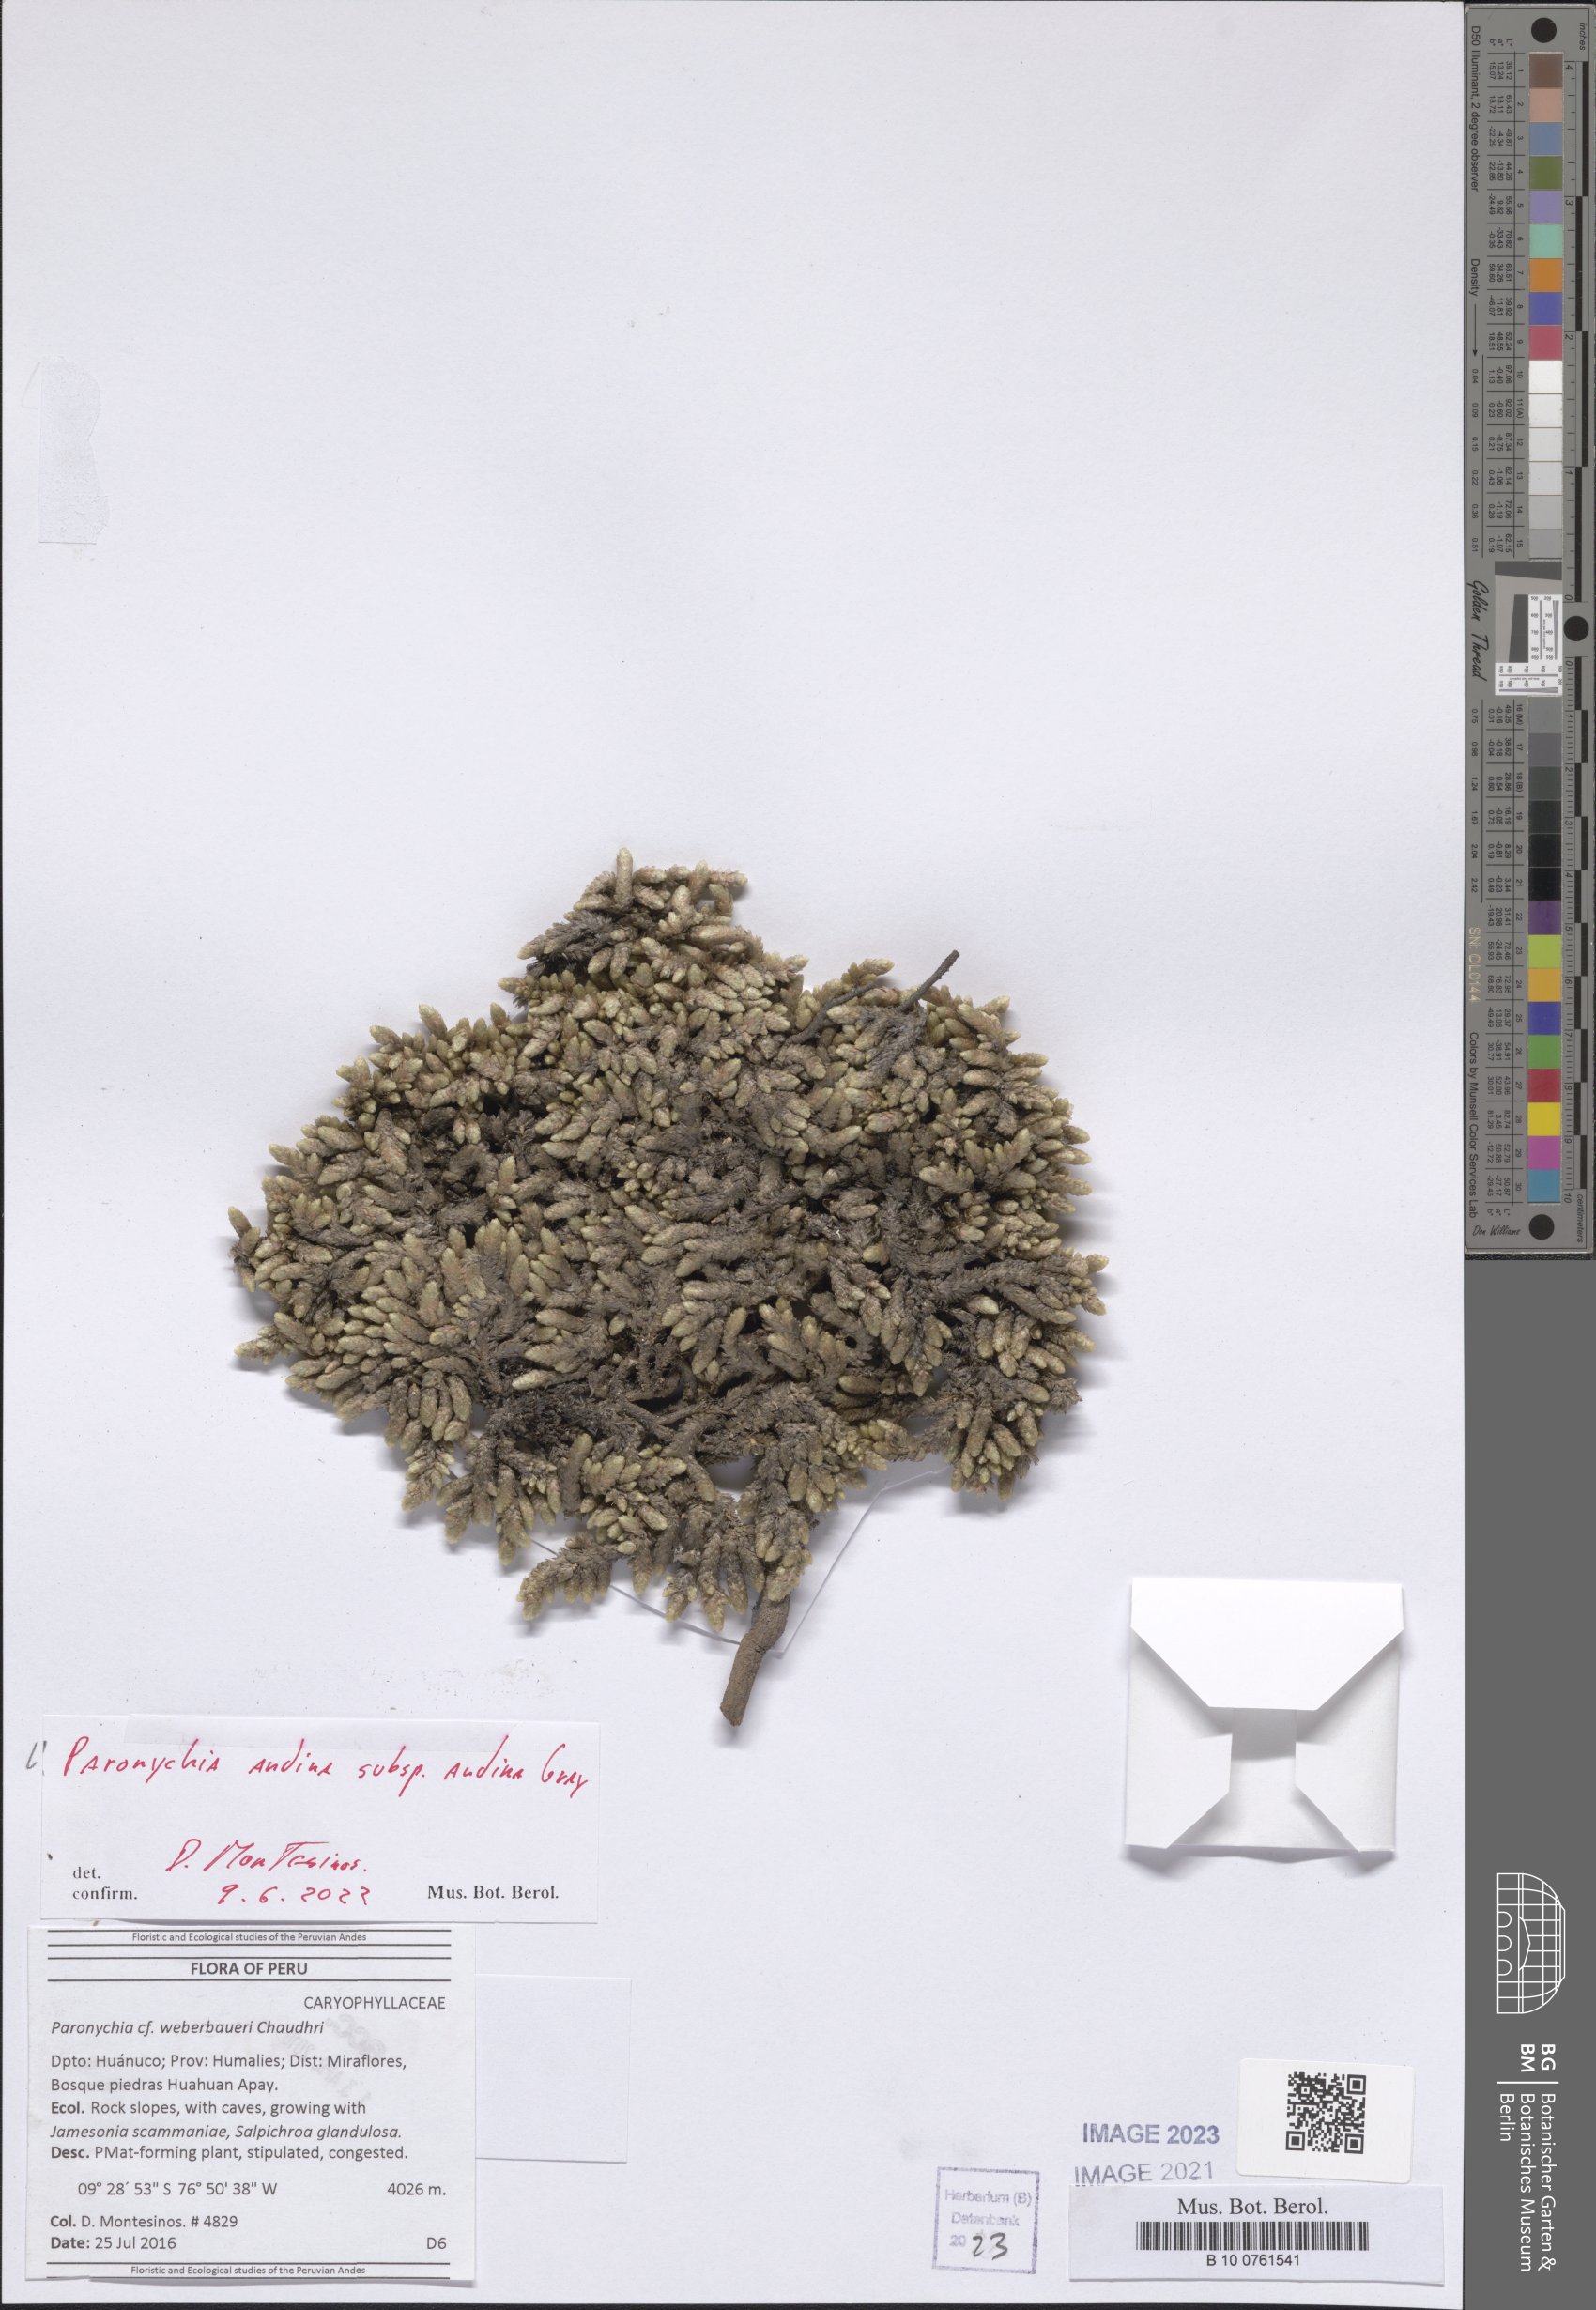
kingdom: Plantae
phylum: Tracheophyta
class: Magnoliopsida
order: Caryophyllales
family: Caryophyllaceae
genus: Paronychia
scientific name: Paronychia andina
